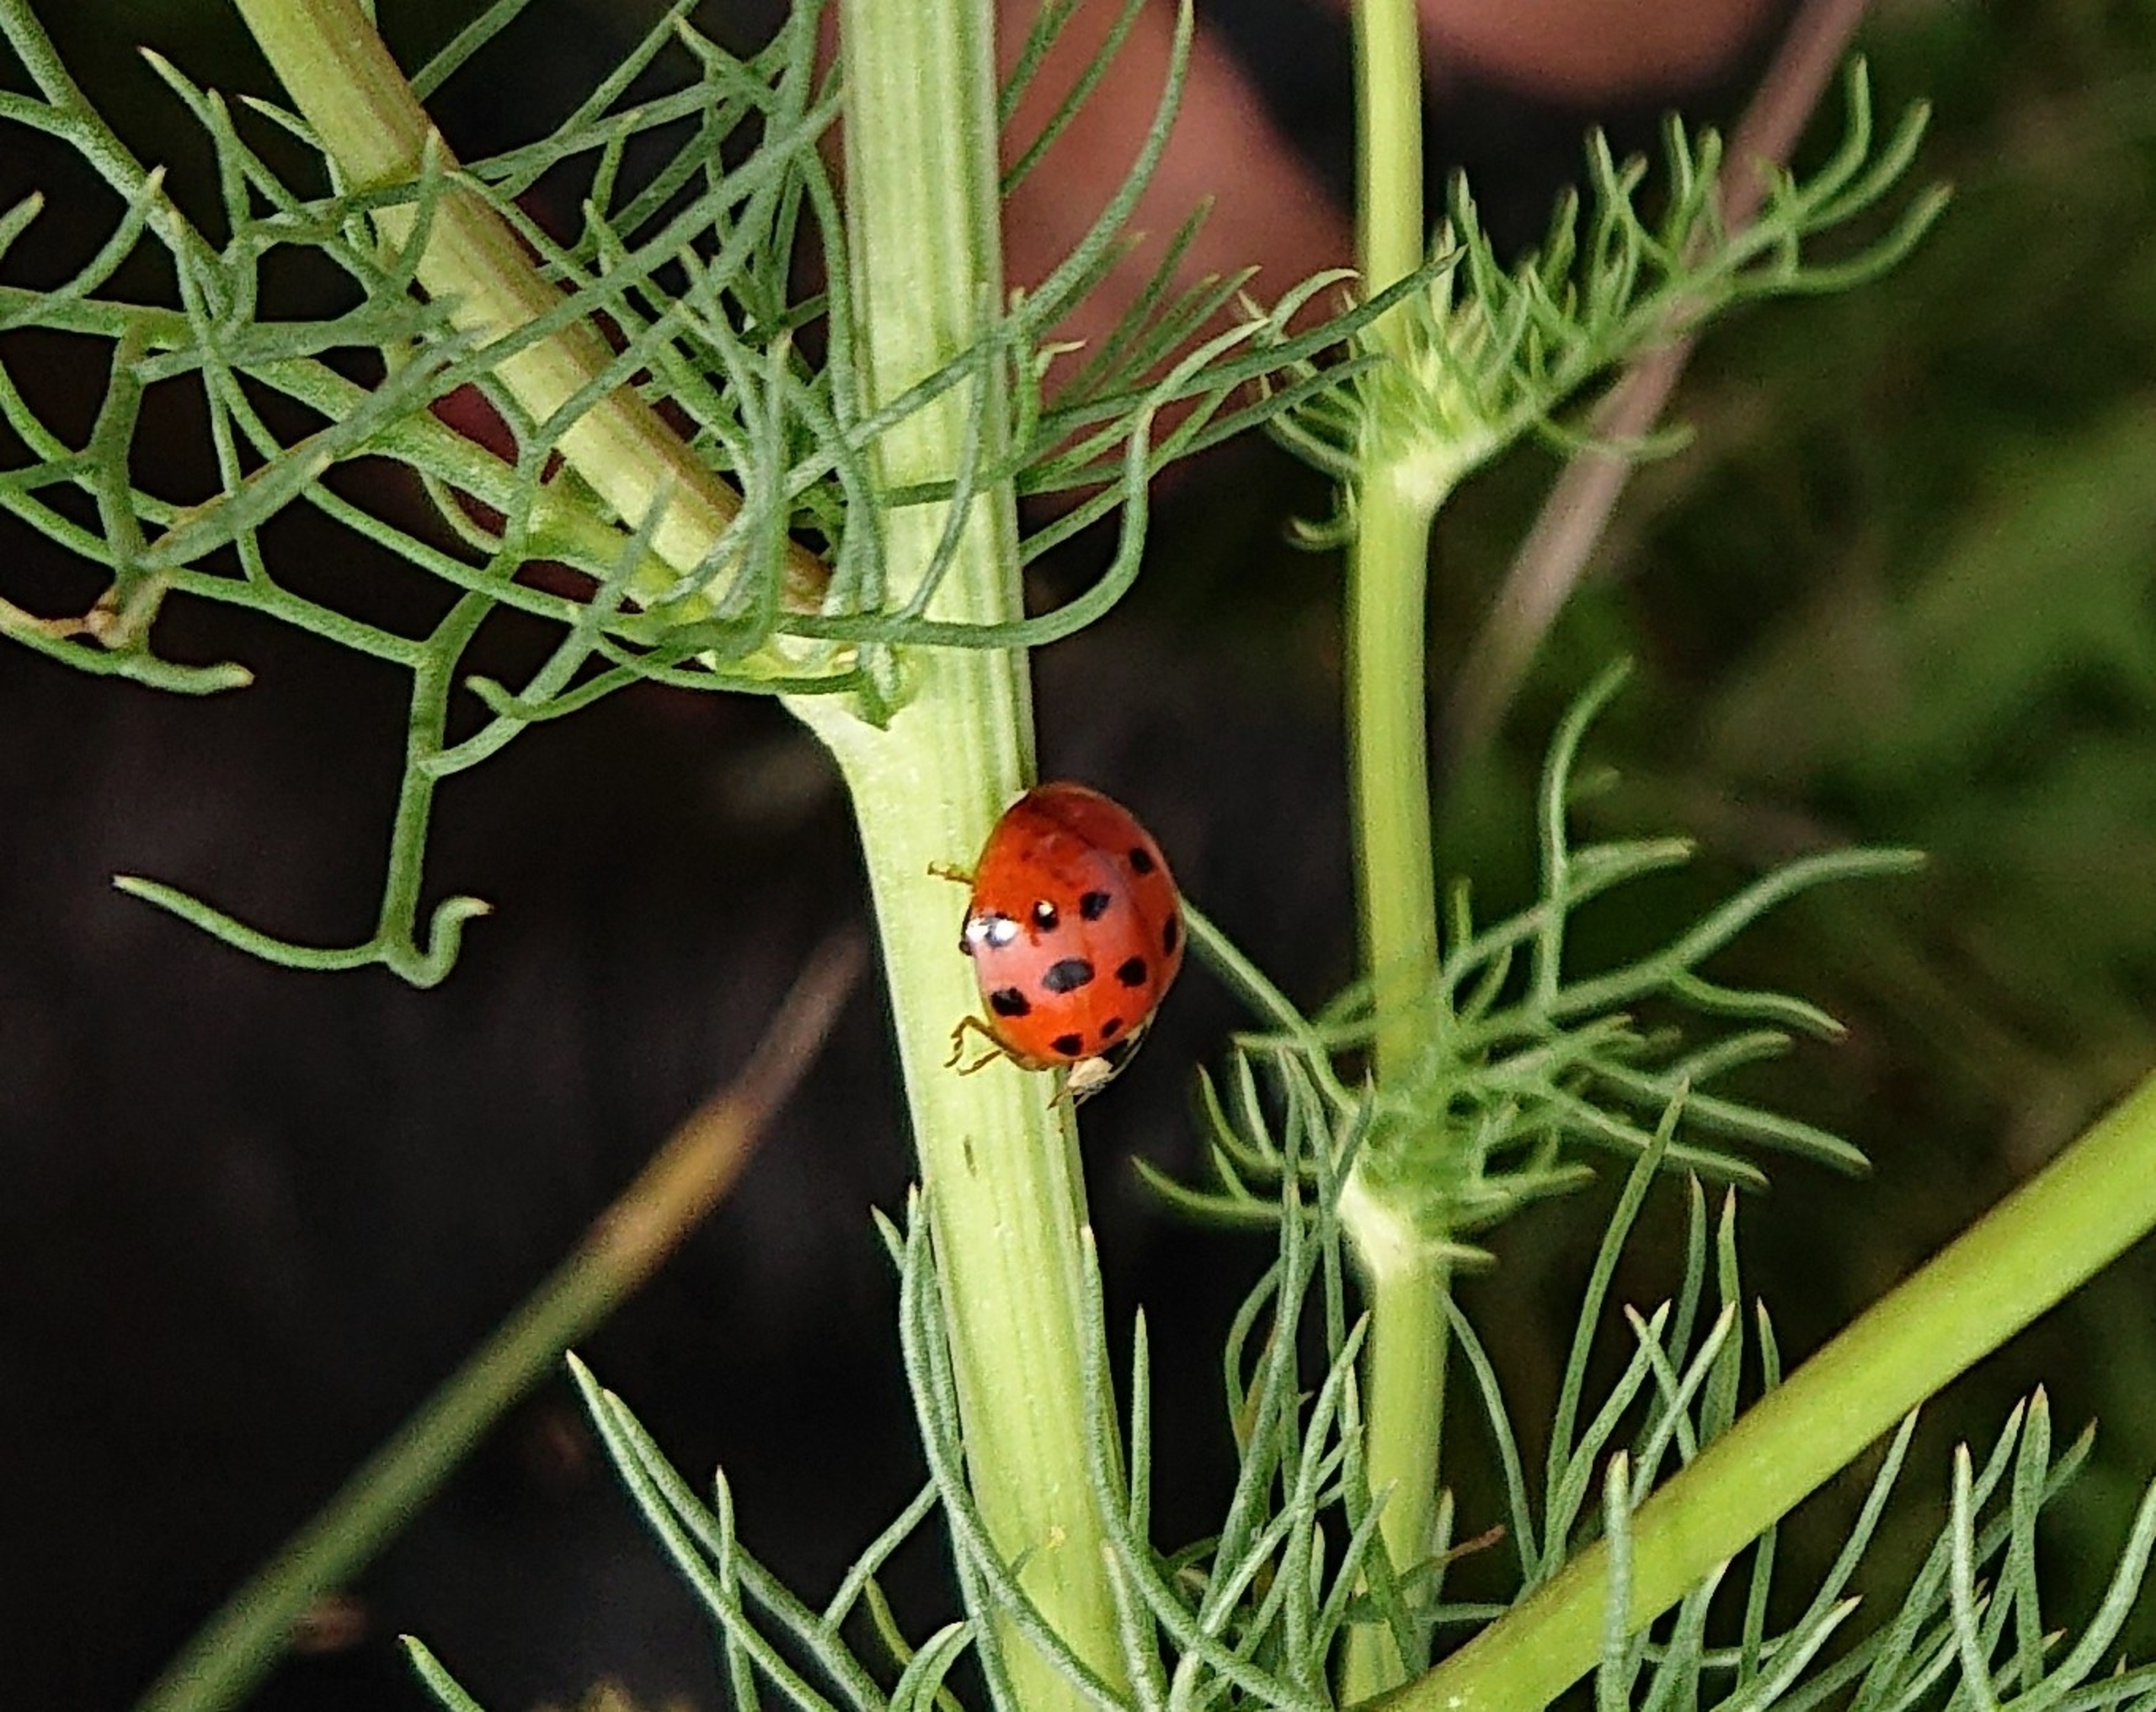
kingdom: Animalia
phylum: Arthropoda
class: Insecta
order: Coleoptera
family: Coccinellidae
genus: Harmonia
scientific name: Harmonia axyridis
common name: Harlekinmariehøne
